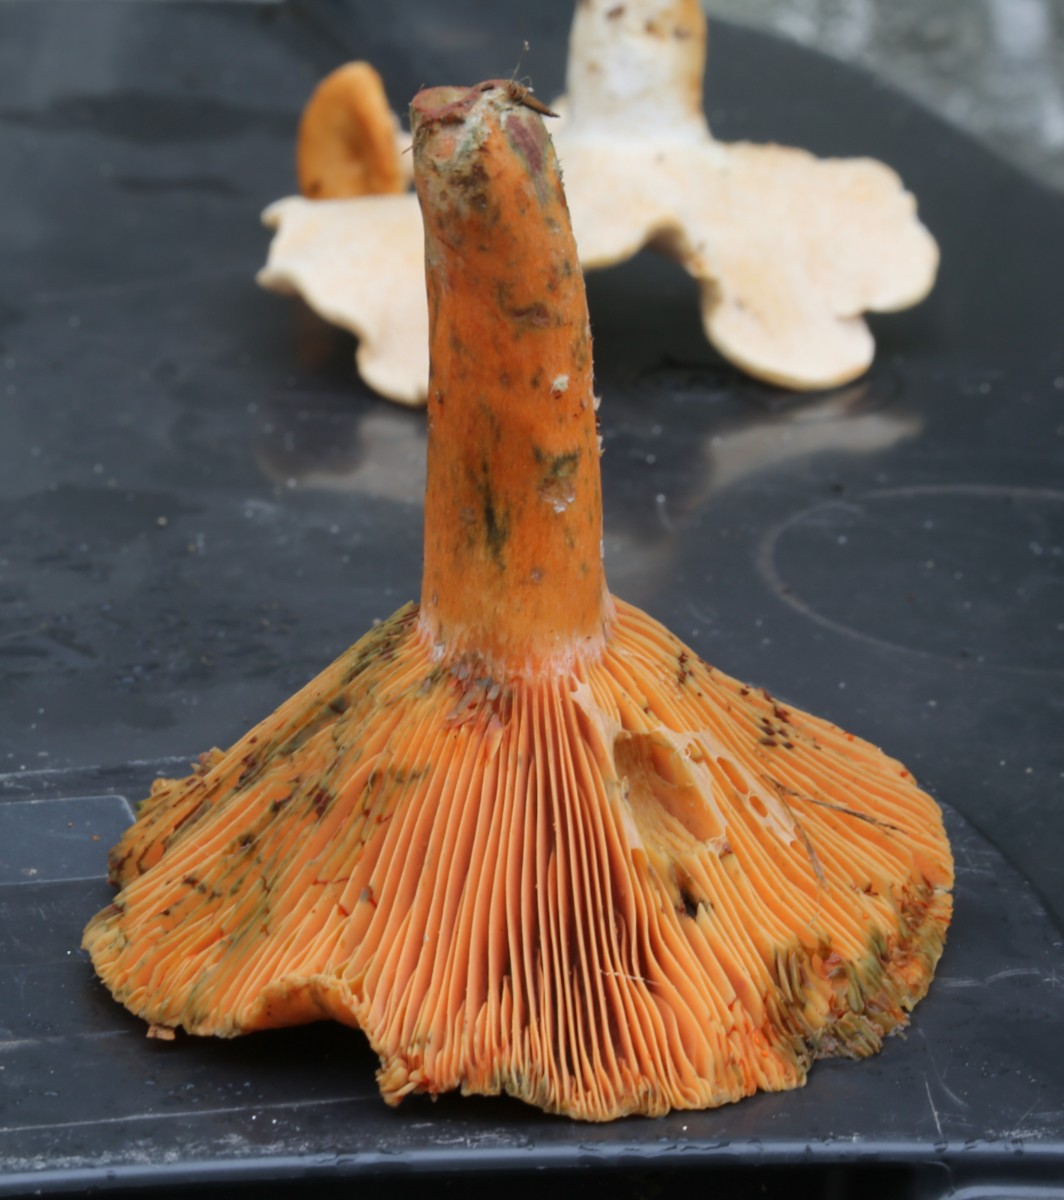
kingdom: Fungi
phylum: Basidiomycota
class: Agaricomycetes
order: Russulales
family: Russulaceae
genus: Lactarius
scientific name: Lactarius deterrimus
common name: gran-mælkehat
